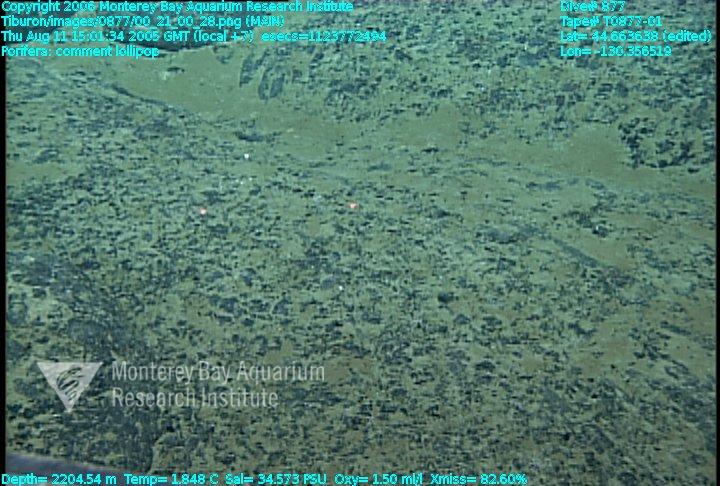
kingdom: Animalia
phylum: Porifera
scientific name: Porifera
